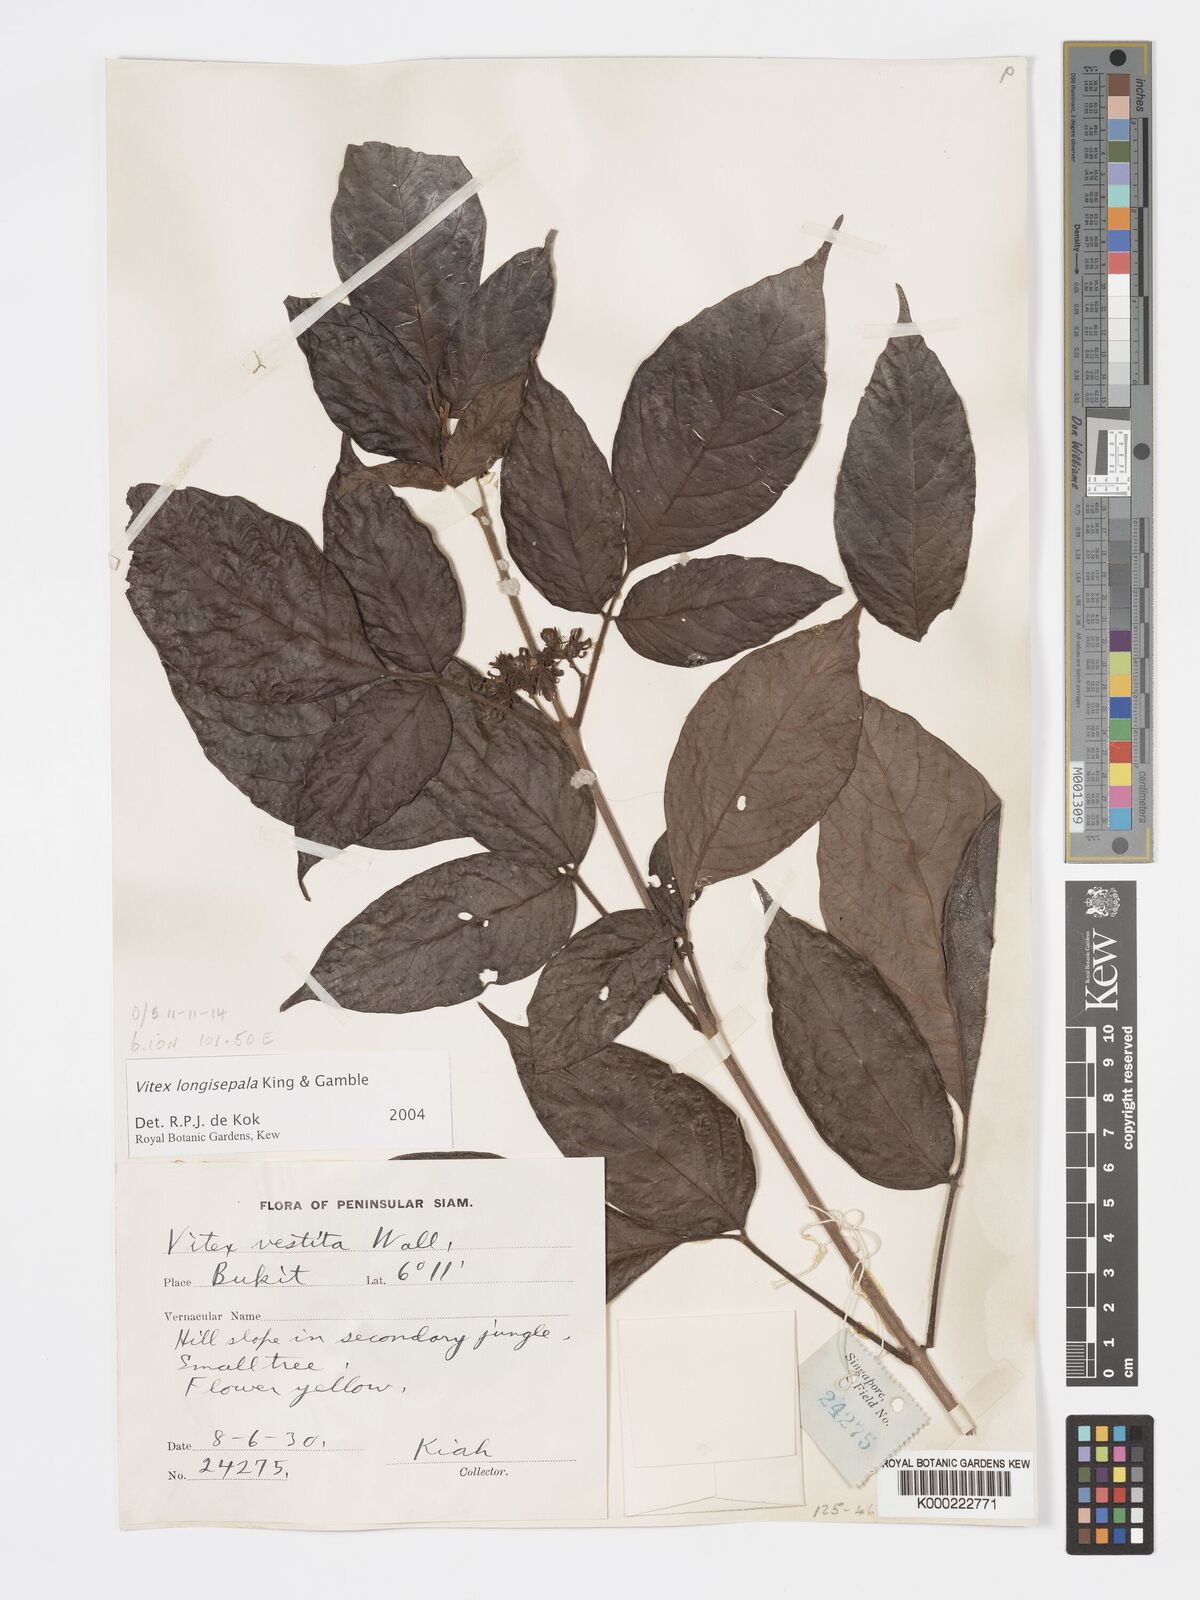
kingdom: Plantae
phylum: Tracheophyta
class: Magnoliopsida
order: Lamiales
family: Lamiaceae
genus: Vitex
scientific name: Vitex longisepala
